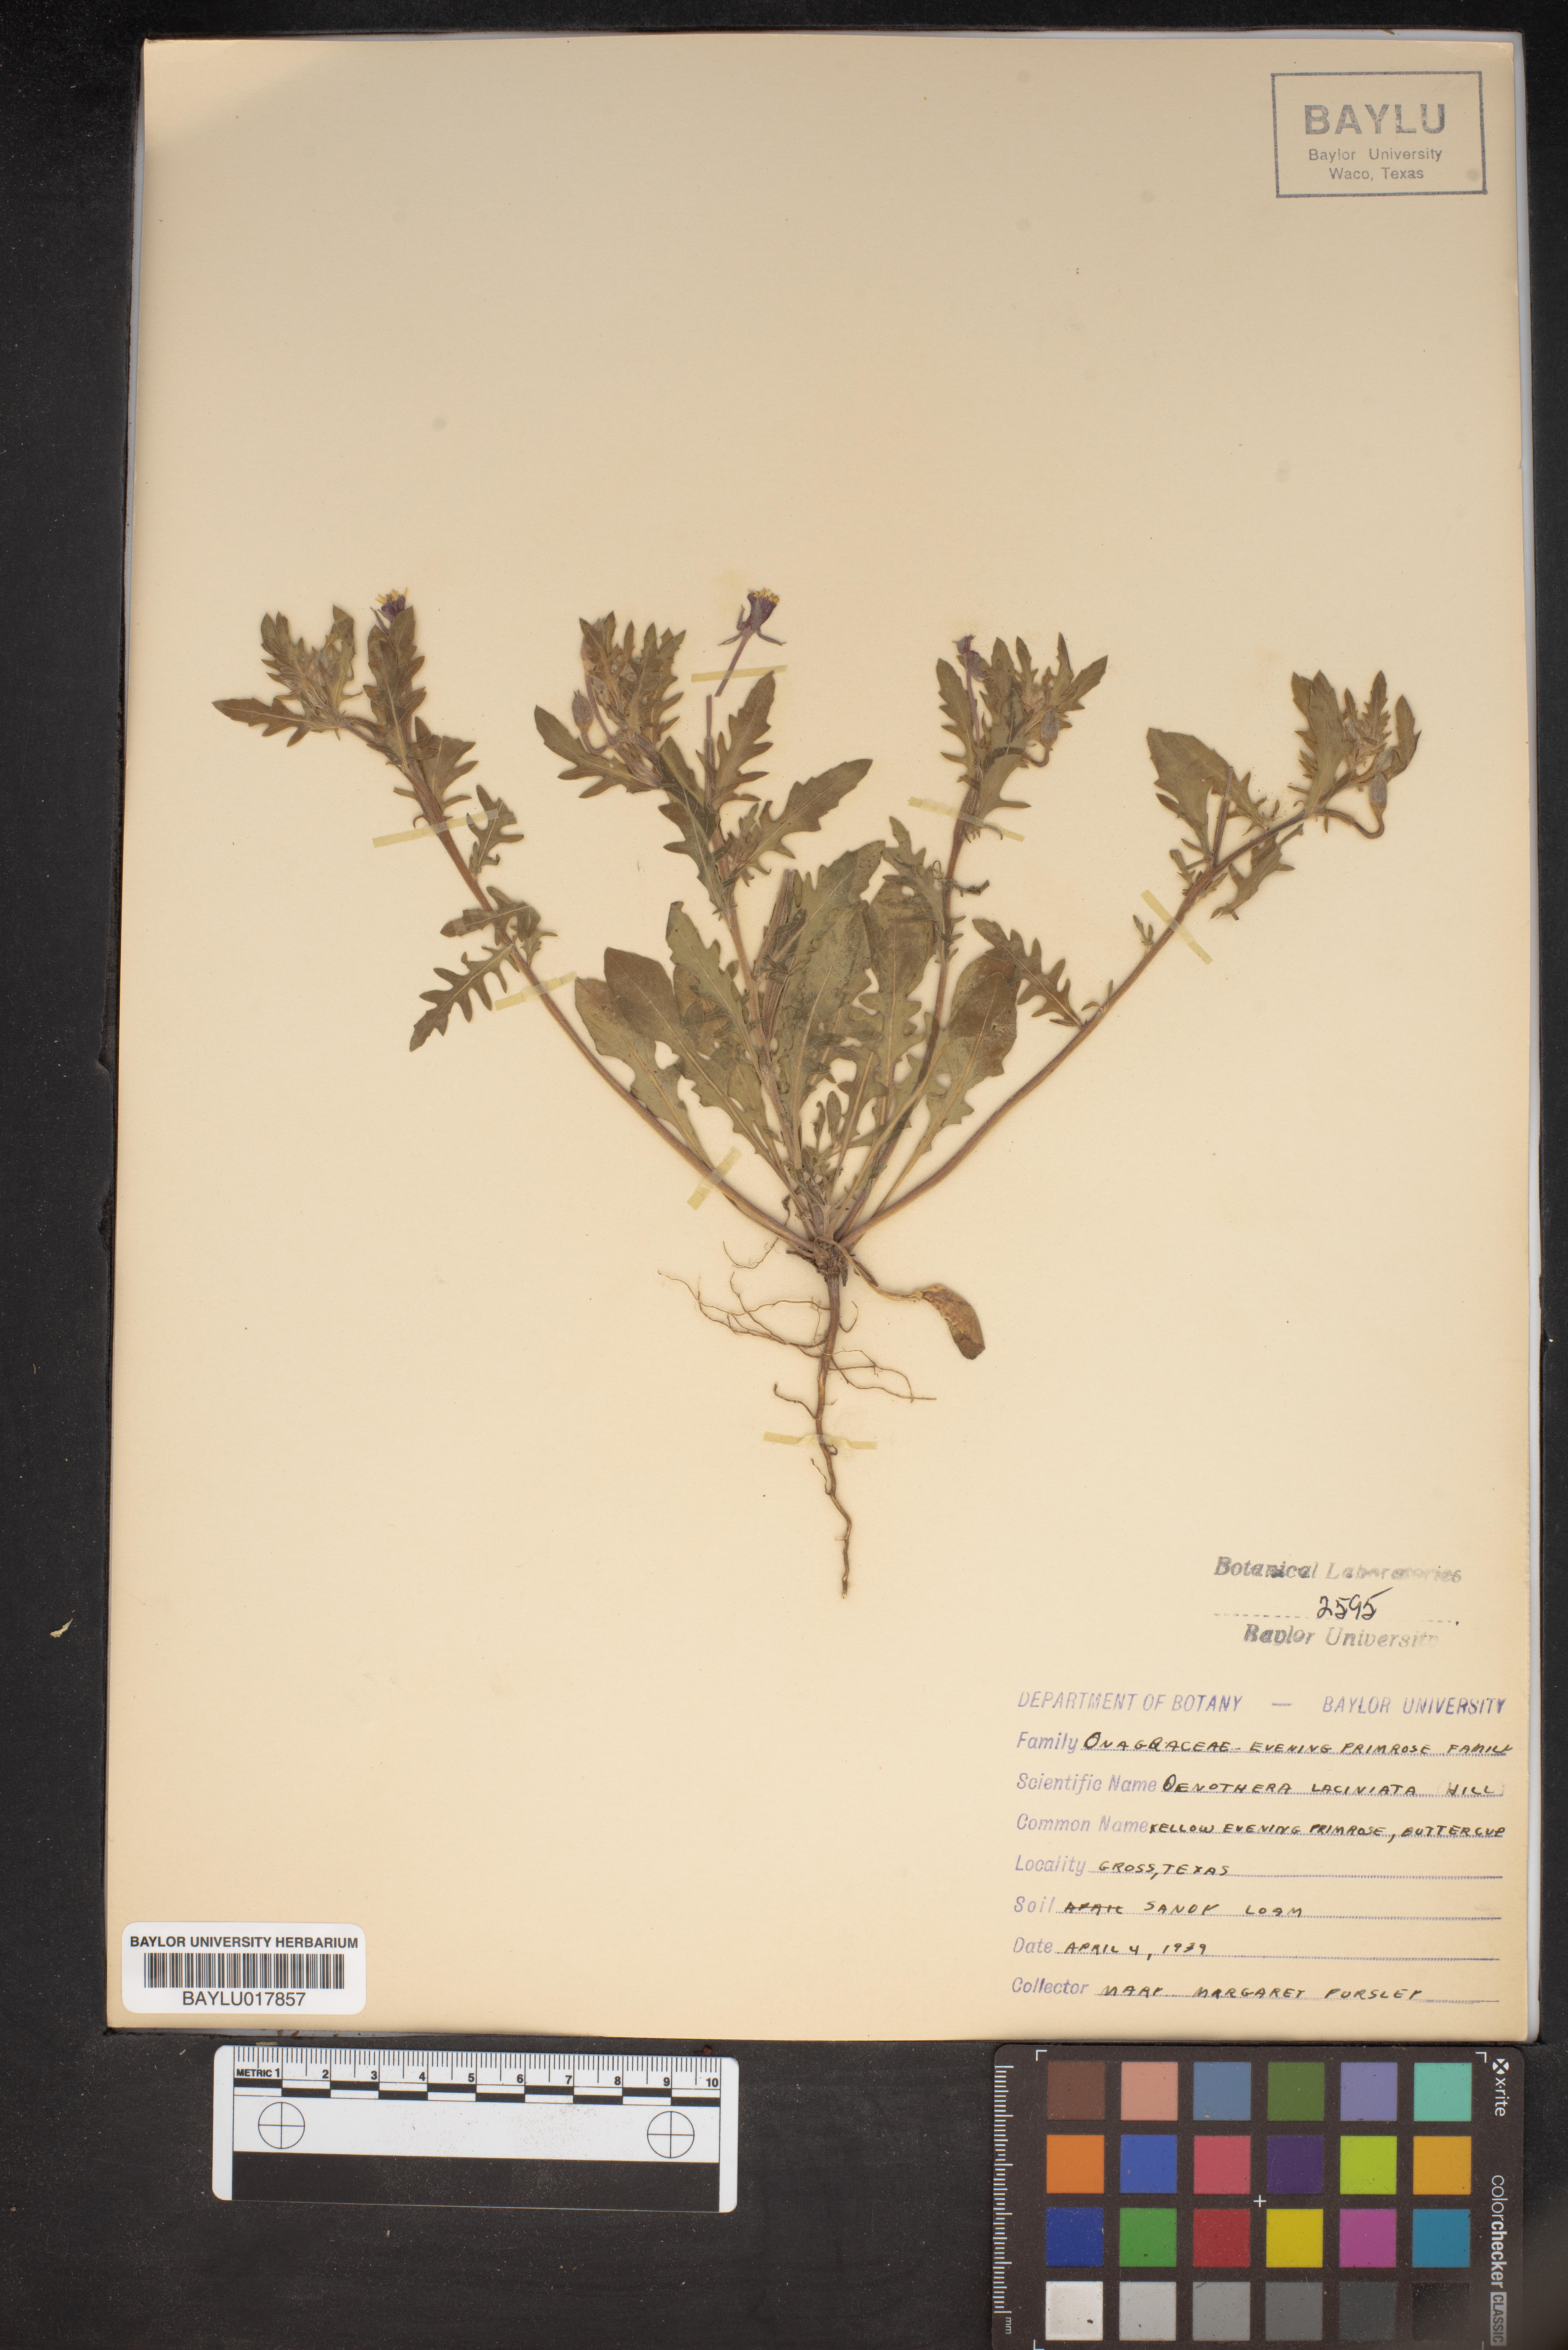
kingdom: Plantae
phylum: Tracheophyta
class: Magnoliopsida
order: Myrtales
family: Onagraceae
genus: Oenothera
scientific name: Oenothera laciniata
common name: Cut-leaved evening-primrose
